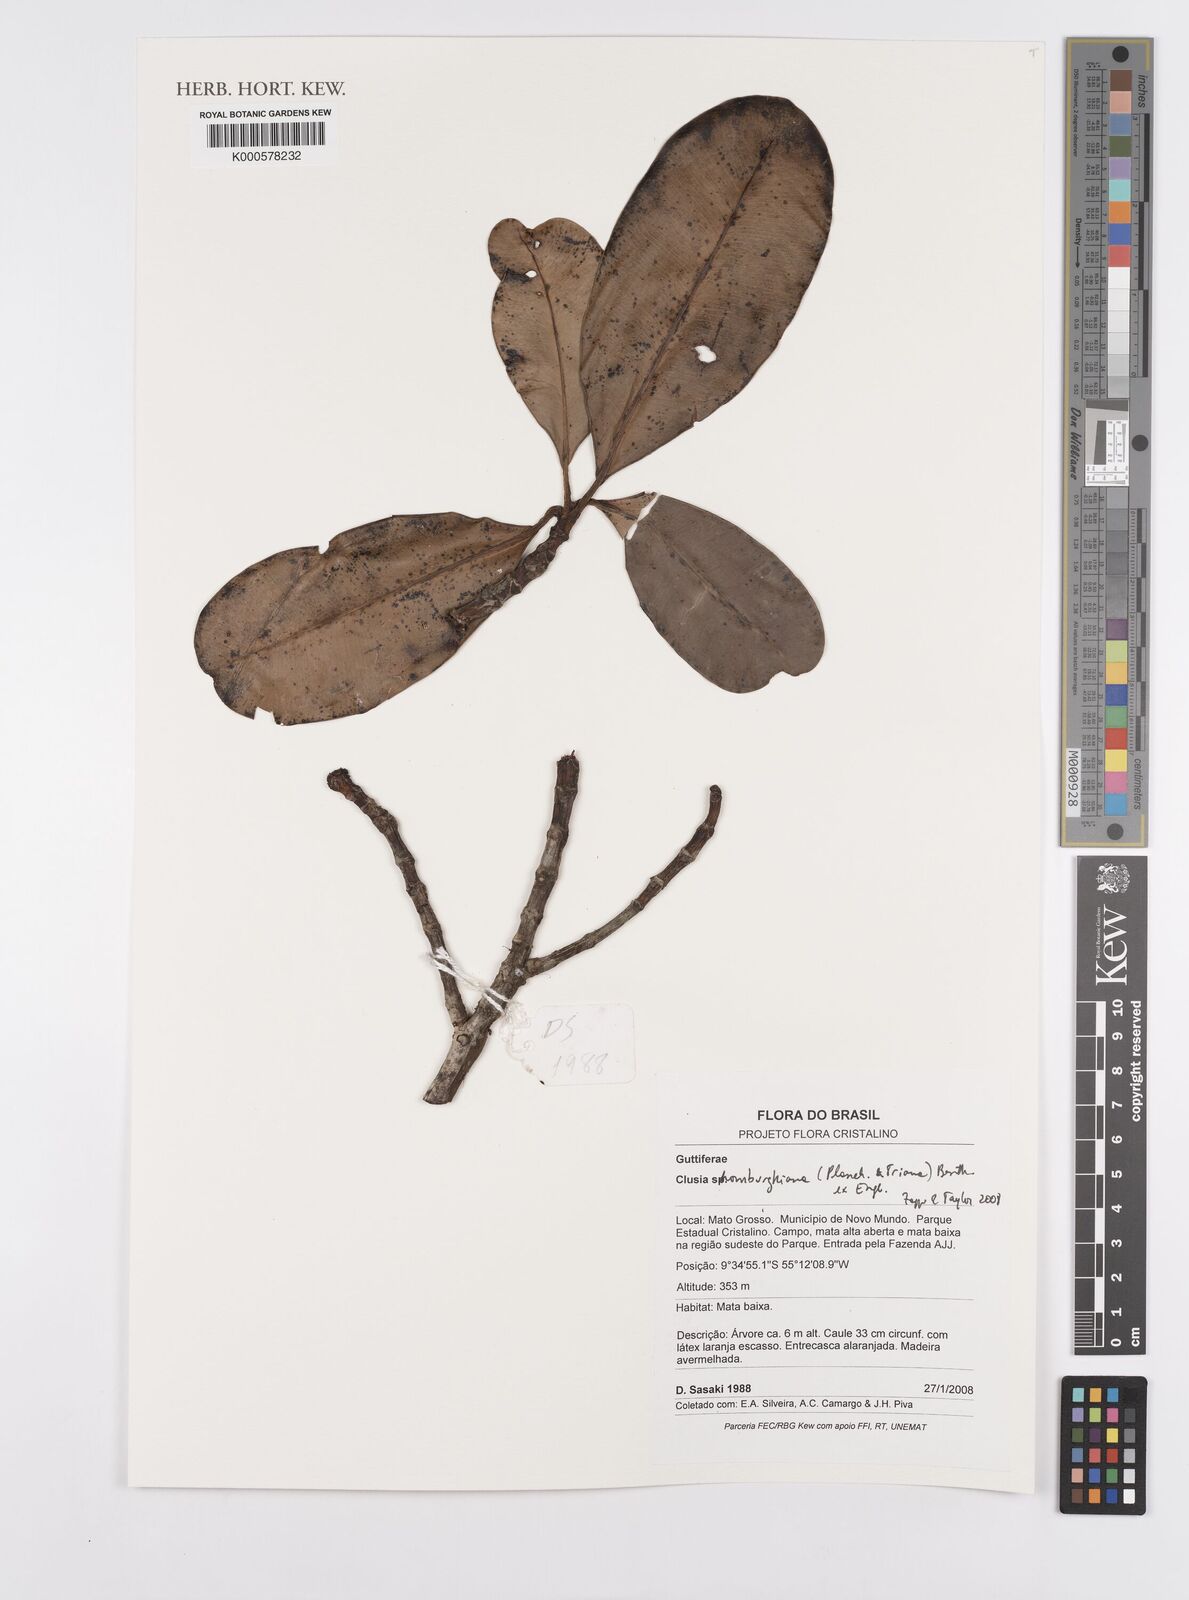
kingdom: Plantae
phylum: Tracheophyta
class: Magnoliopsida
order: Malpighiales
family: Clusiaceae
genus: Clusia
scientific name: Clusia schomburgkiana
